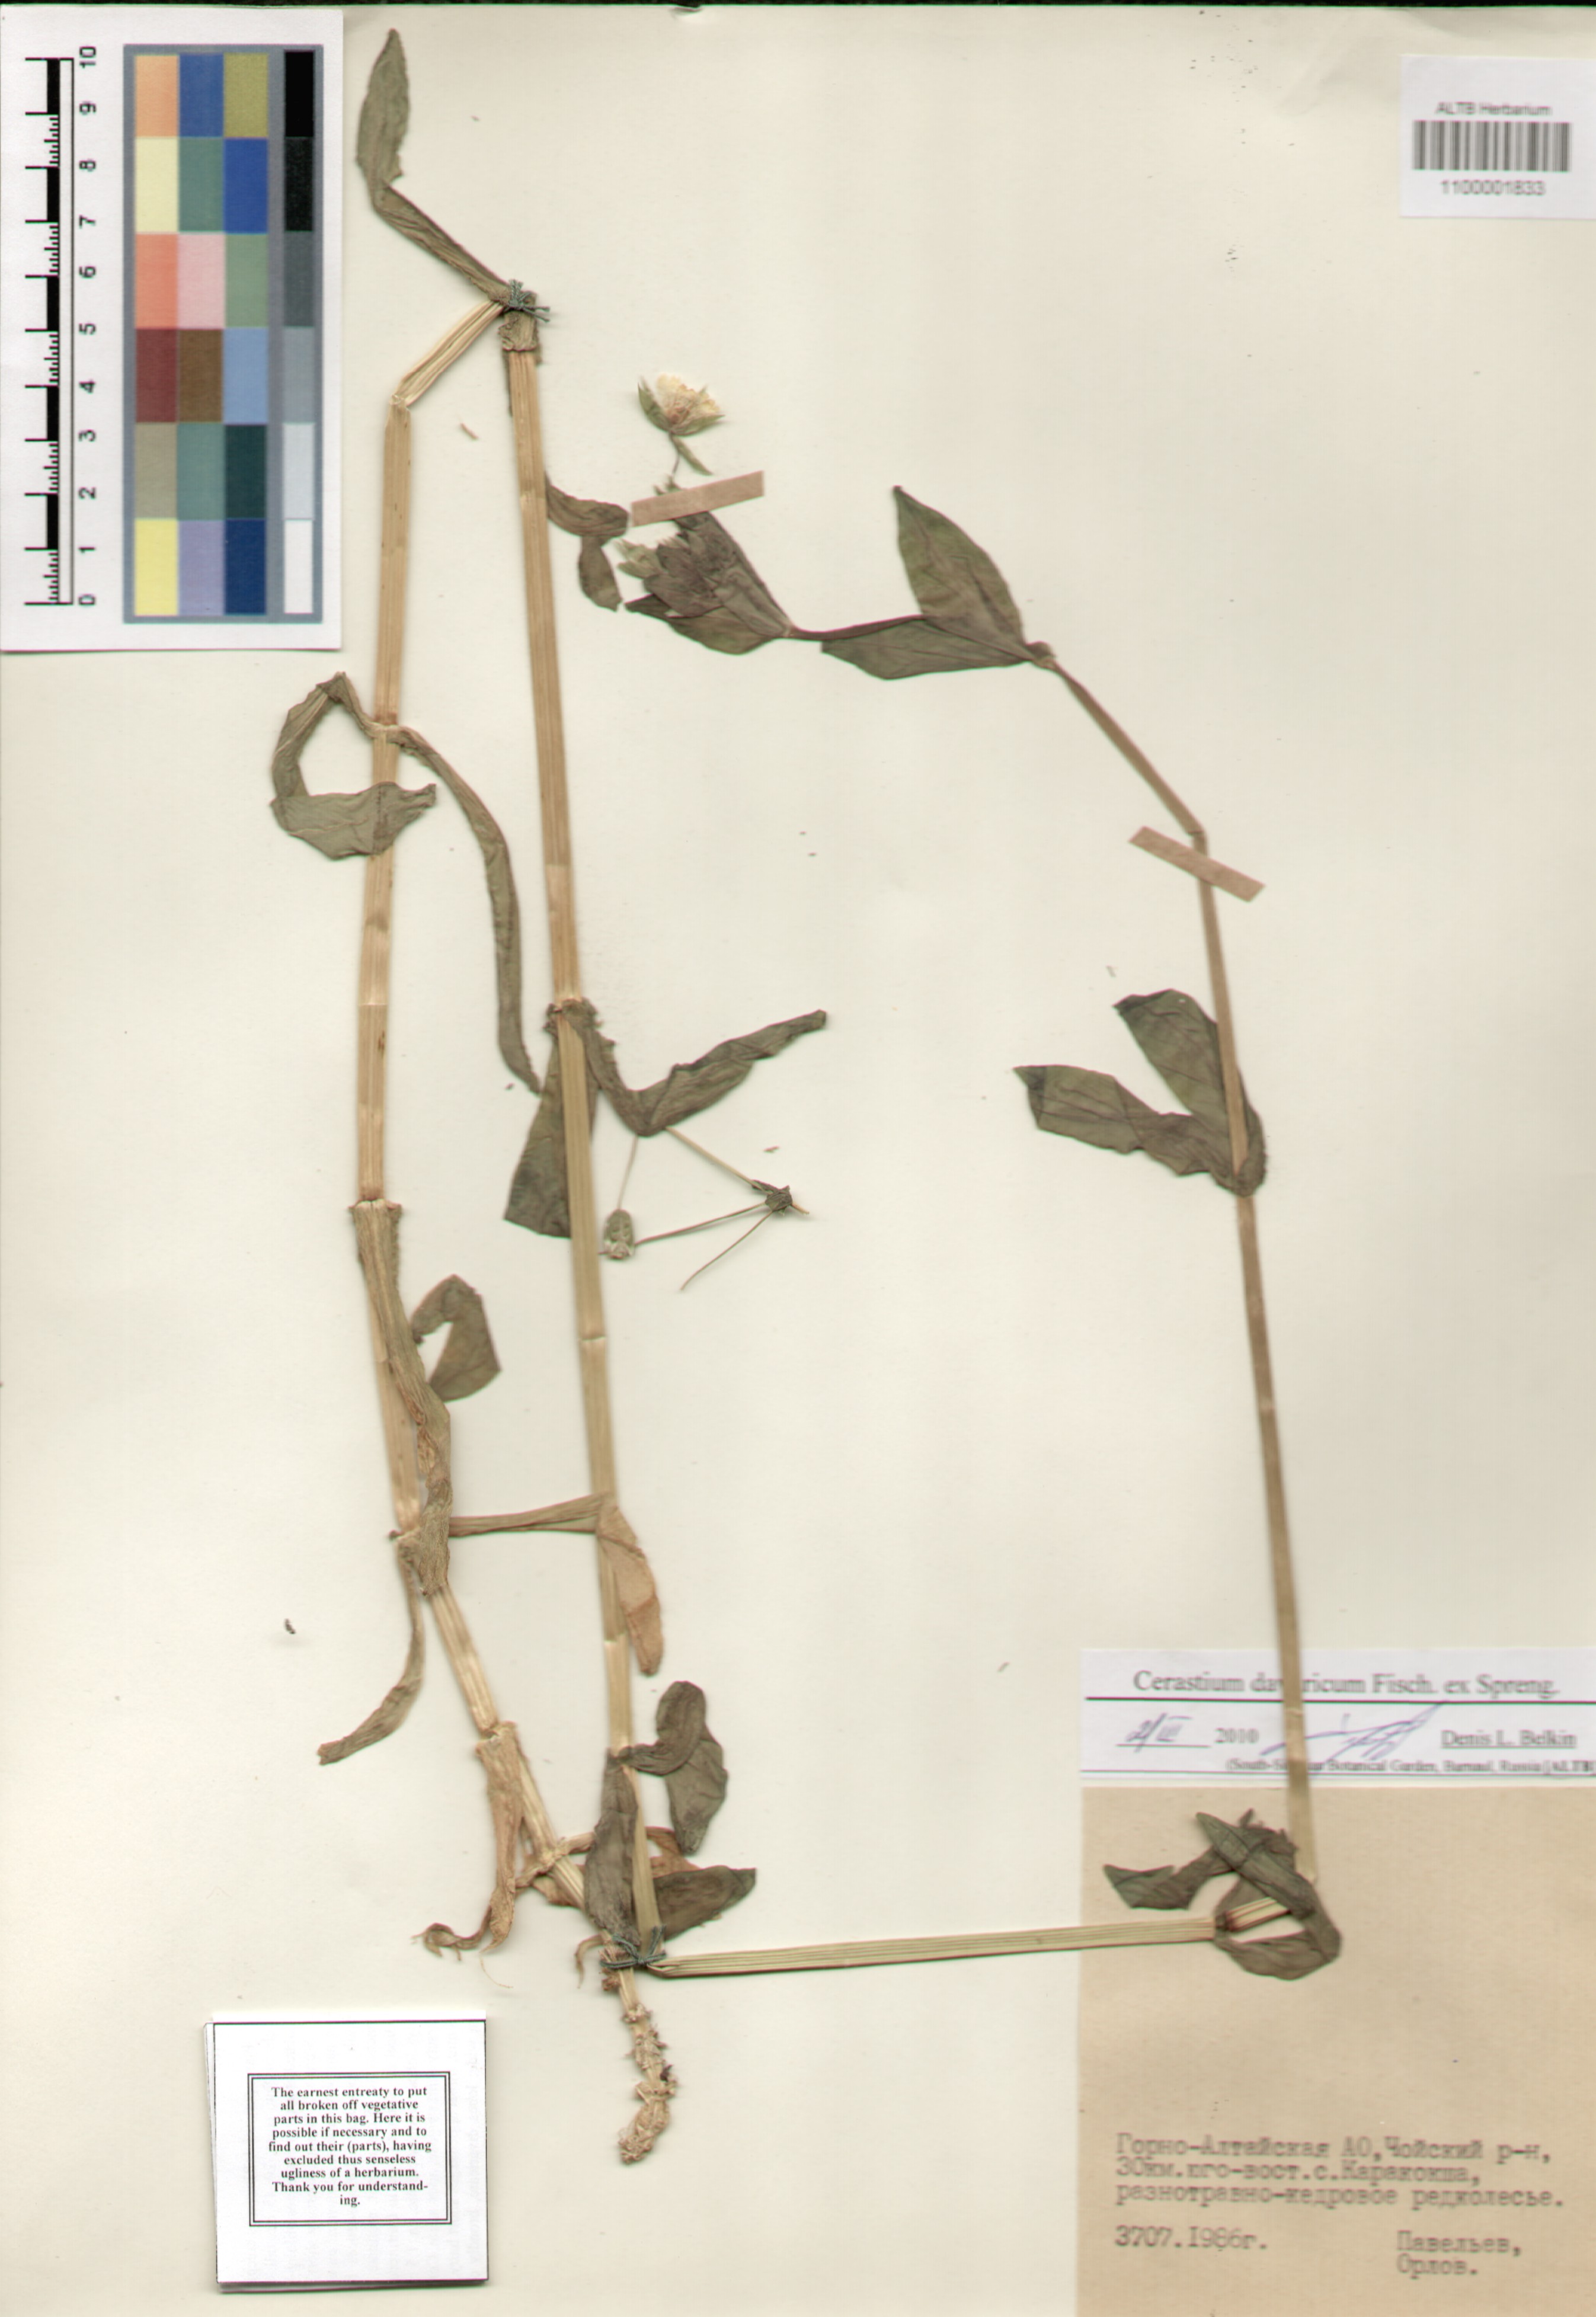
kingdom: Plantae
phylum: Tracheophyta
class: Magnoliopsida
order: Caryophyllales
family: Caryophyllaceae
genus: Dichodon
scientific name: Dichodon davuricum
